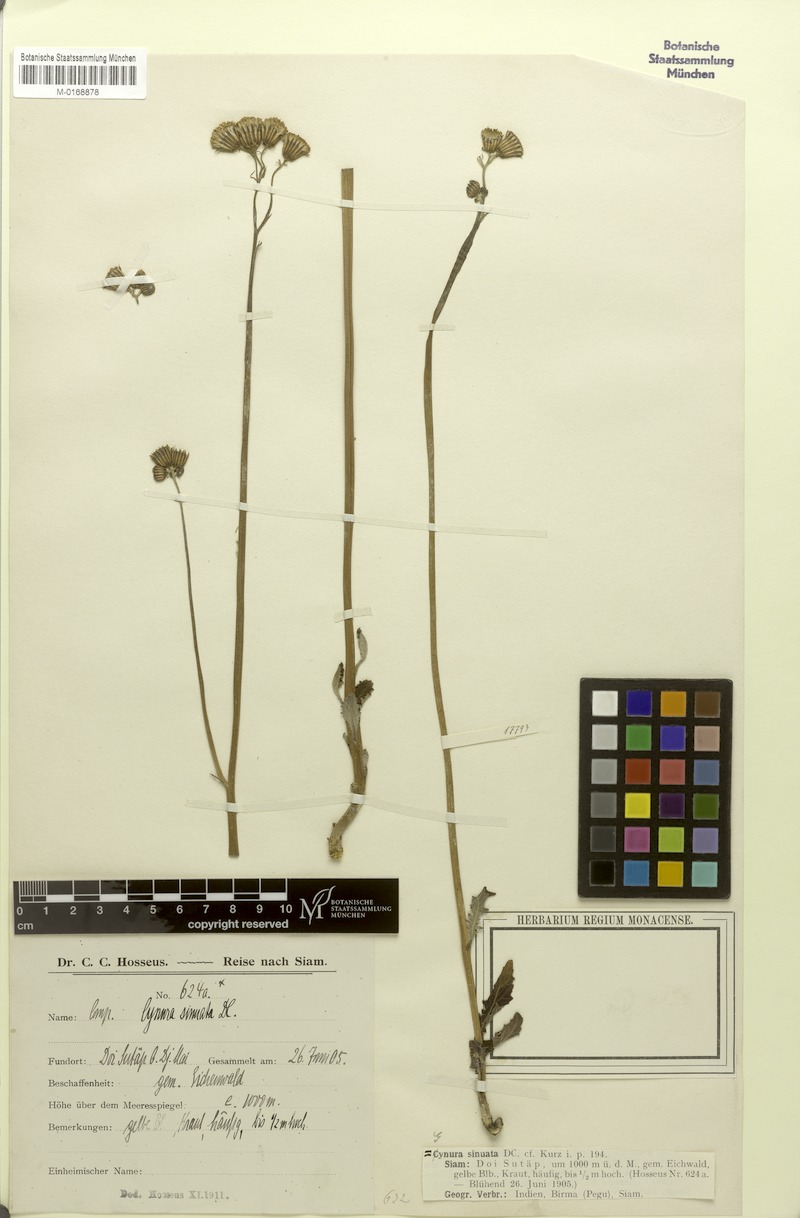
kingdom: Plantae
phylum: Tracheophyta
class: Magnoliopsida
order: Asterales
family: Asteraceae
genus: Gynura
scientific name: Gynura pseudochina
